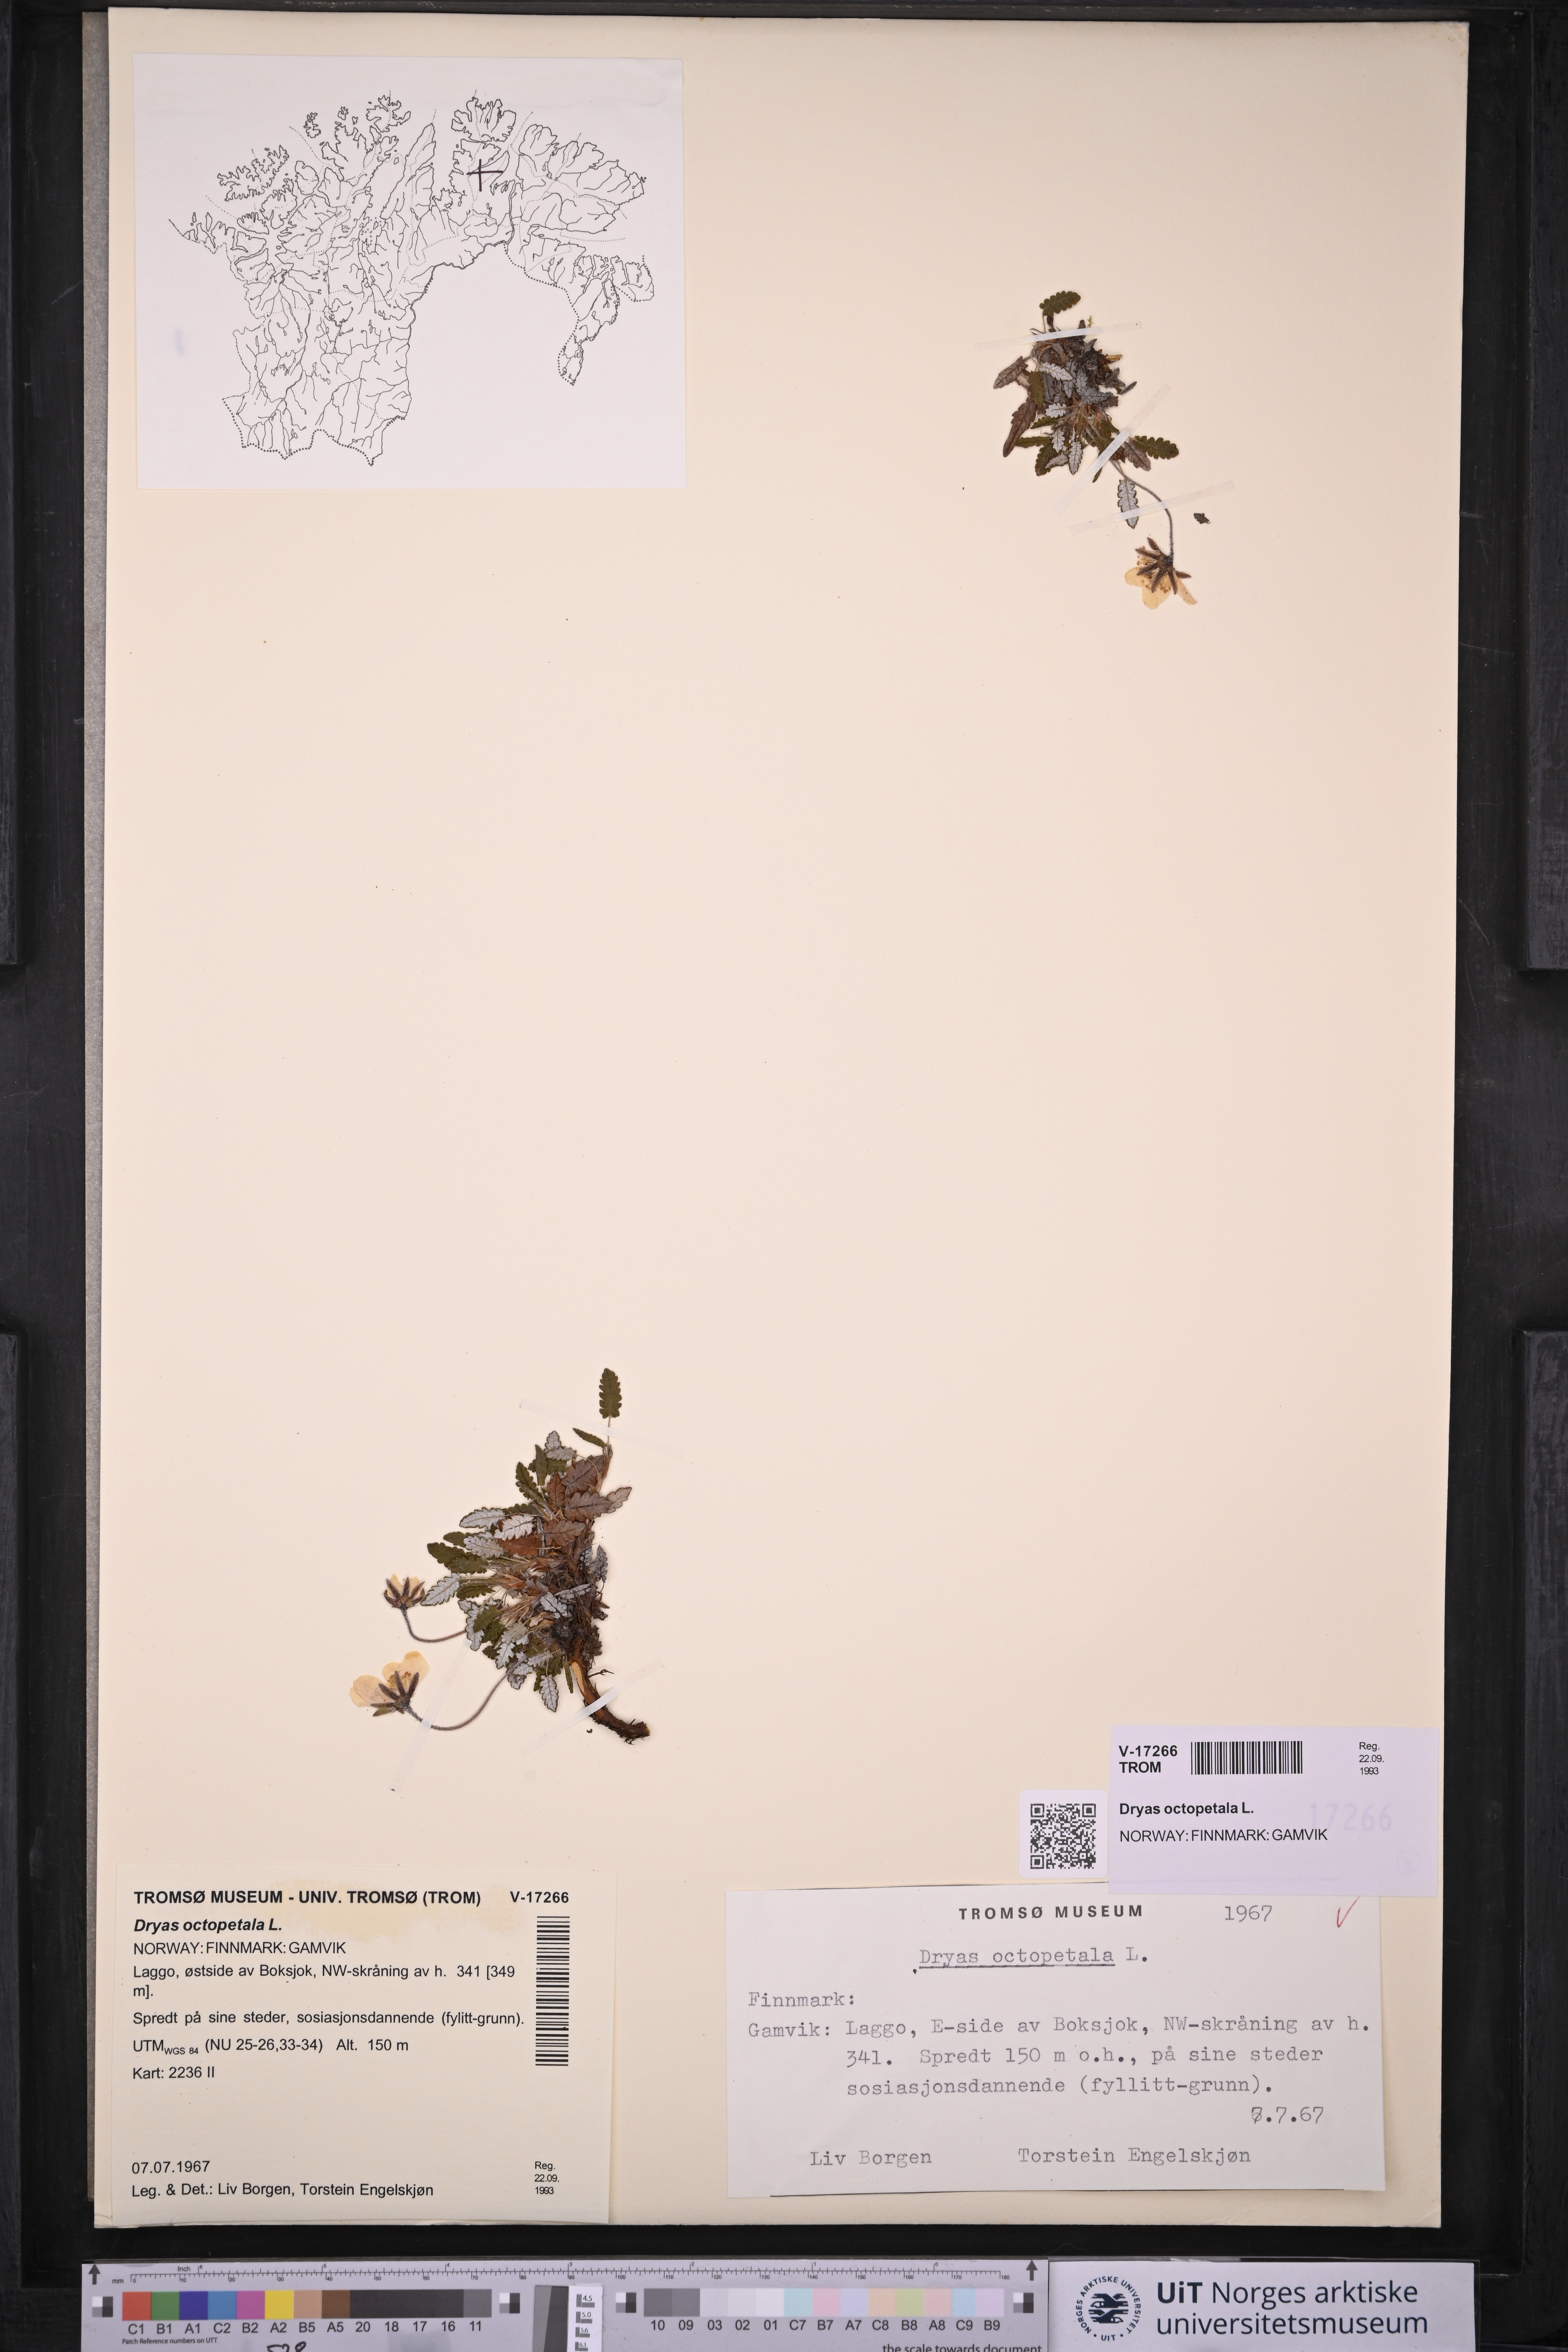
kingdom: Plantae
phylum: Tracheophyta
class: Magnoliopsida
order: Rosales
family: Rosaceae
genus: Dryas
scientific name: Dryas octopetala
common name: Eight-petal mountain-avens
